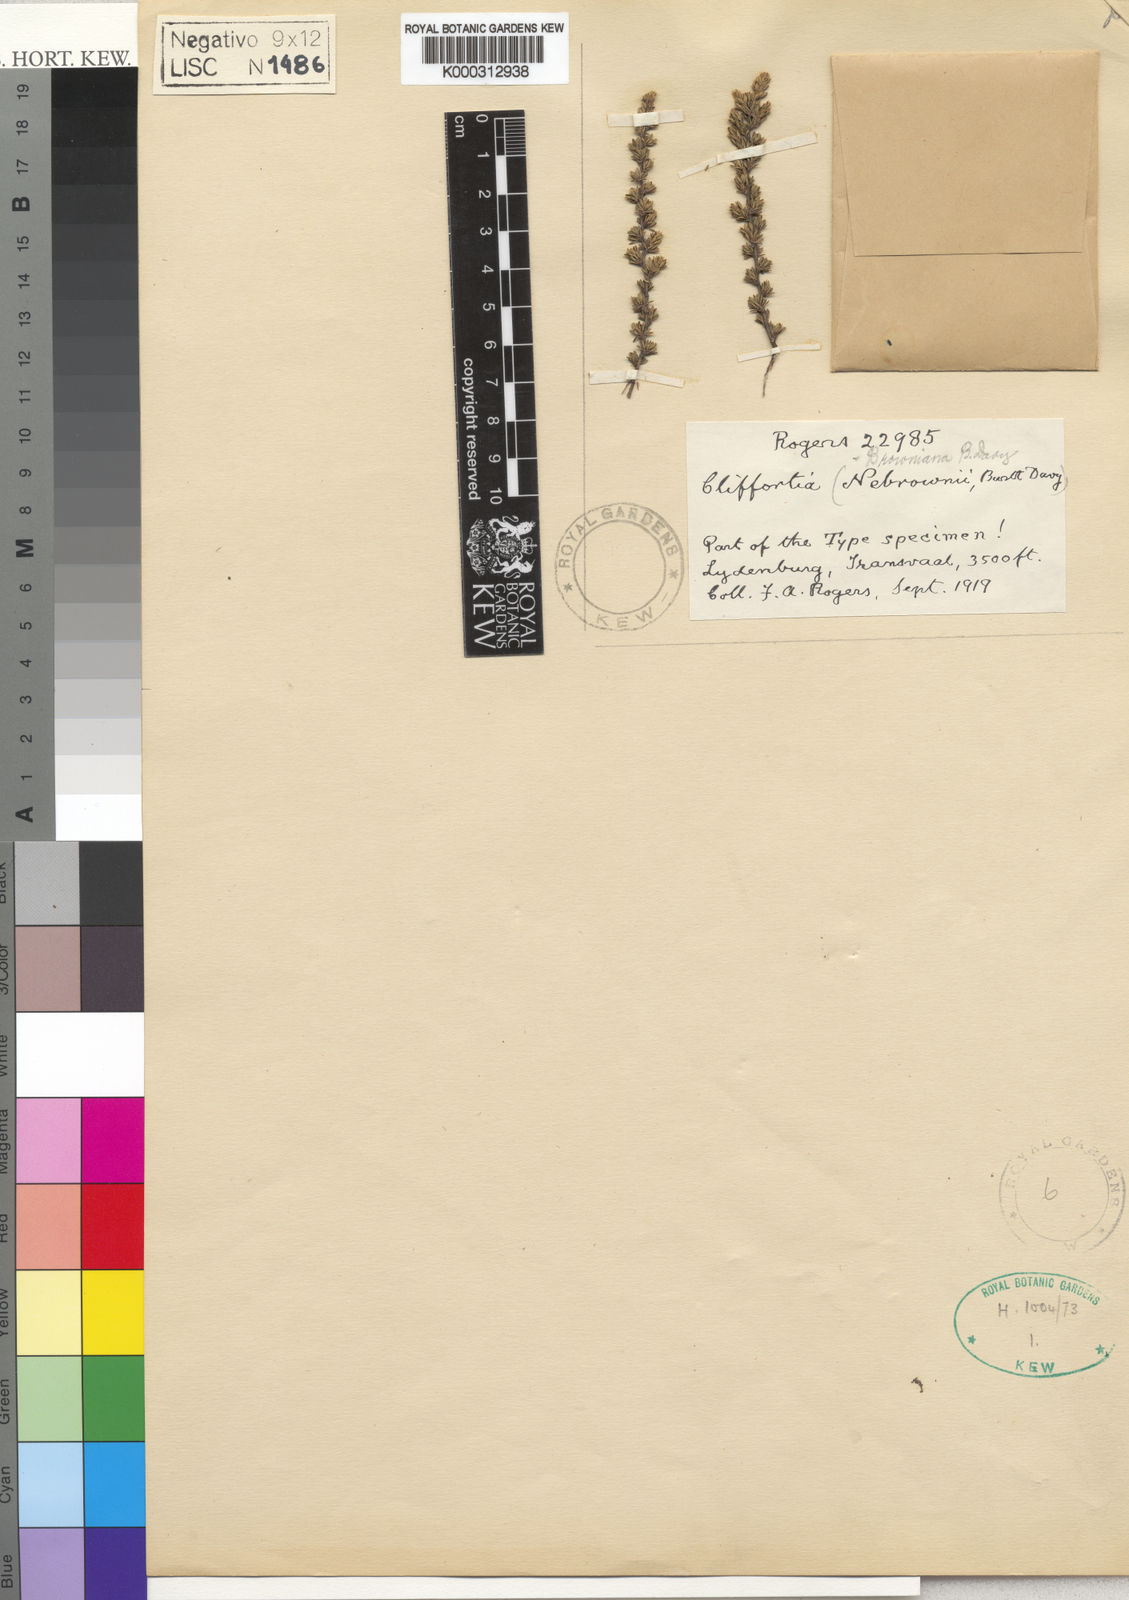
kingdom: Plantae
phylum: Tracheophyta
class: Magnoliopsida
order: Rosales
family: Rosaceae
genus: Cliffortia
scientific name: Cliffortia
